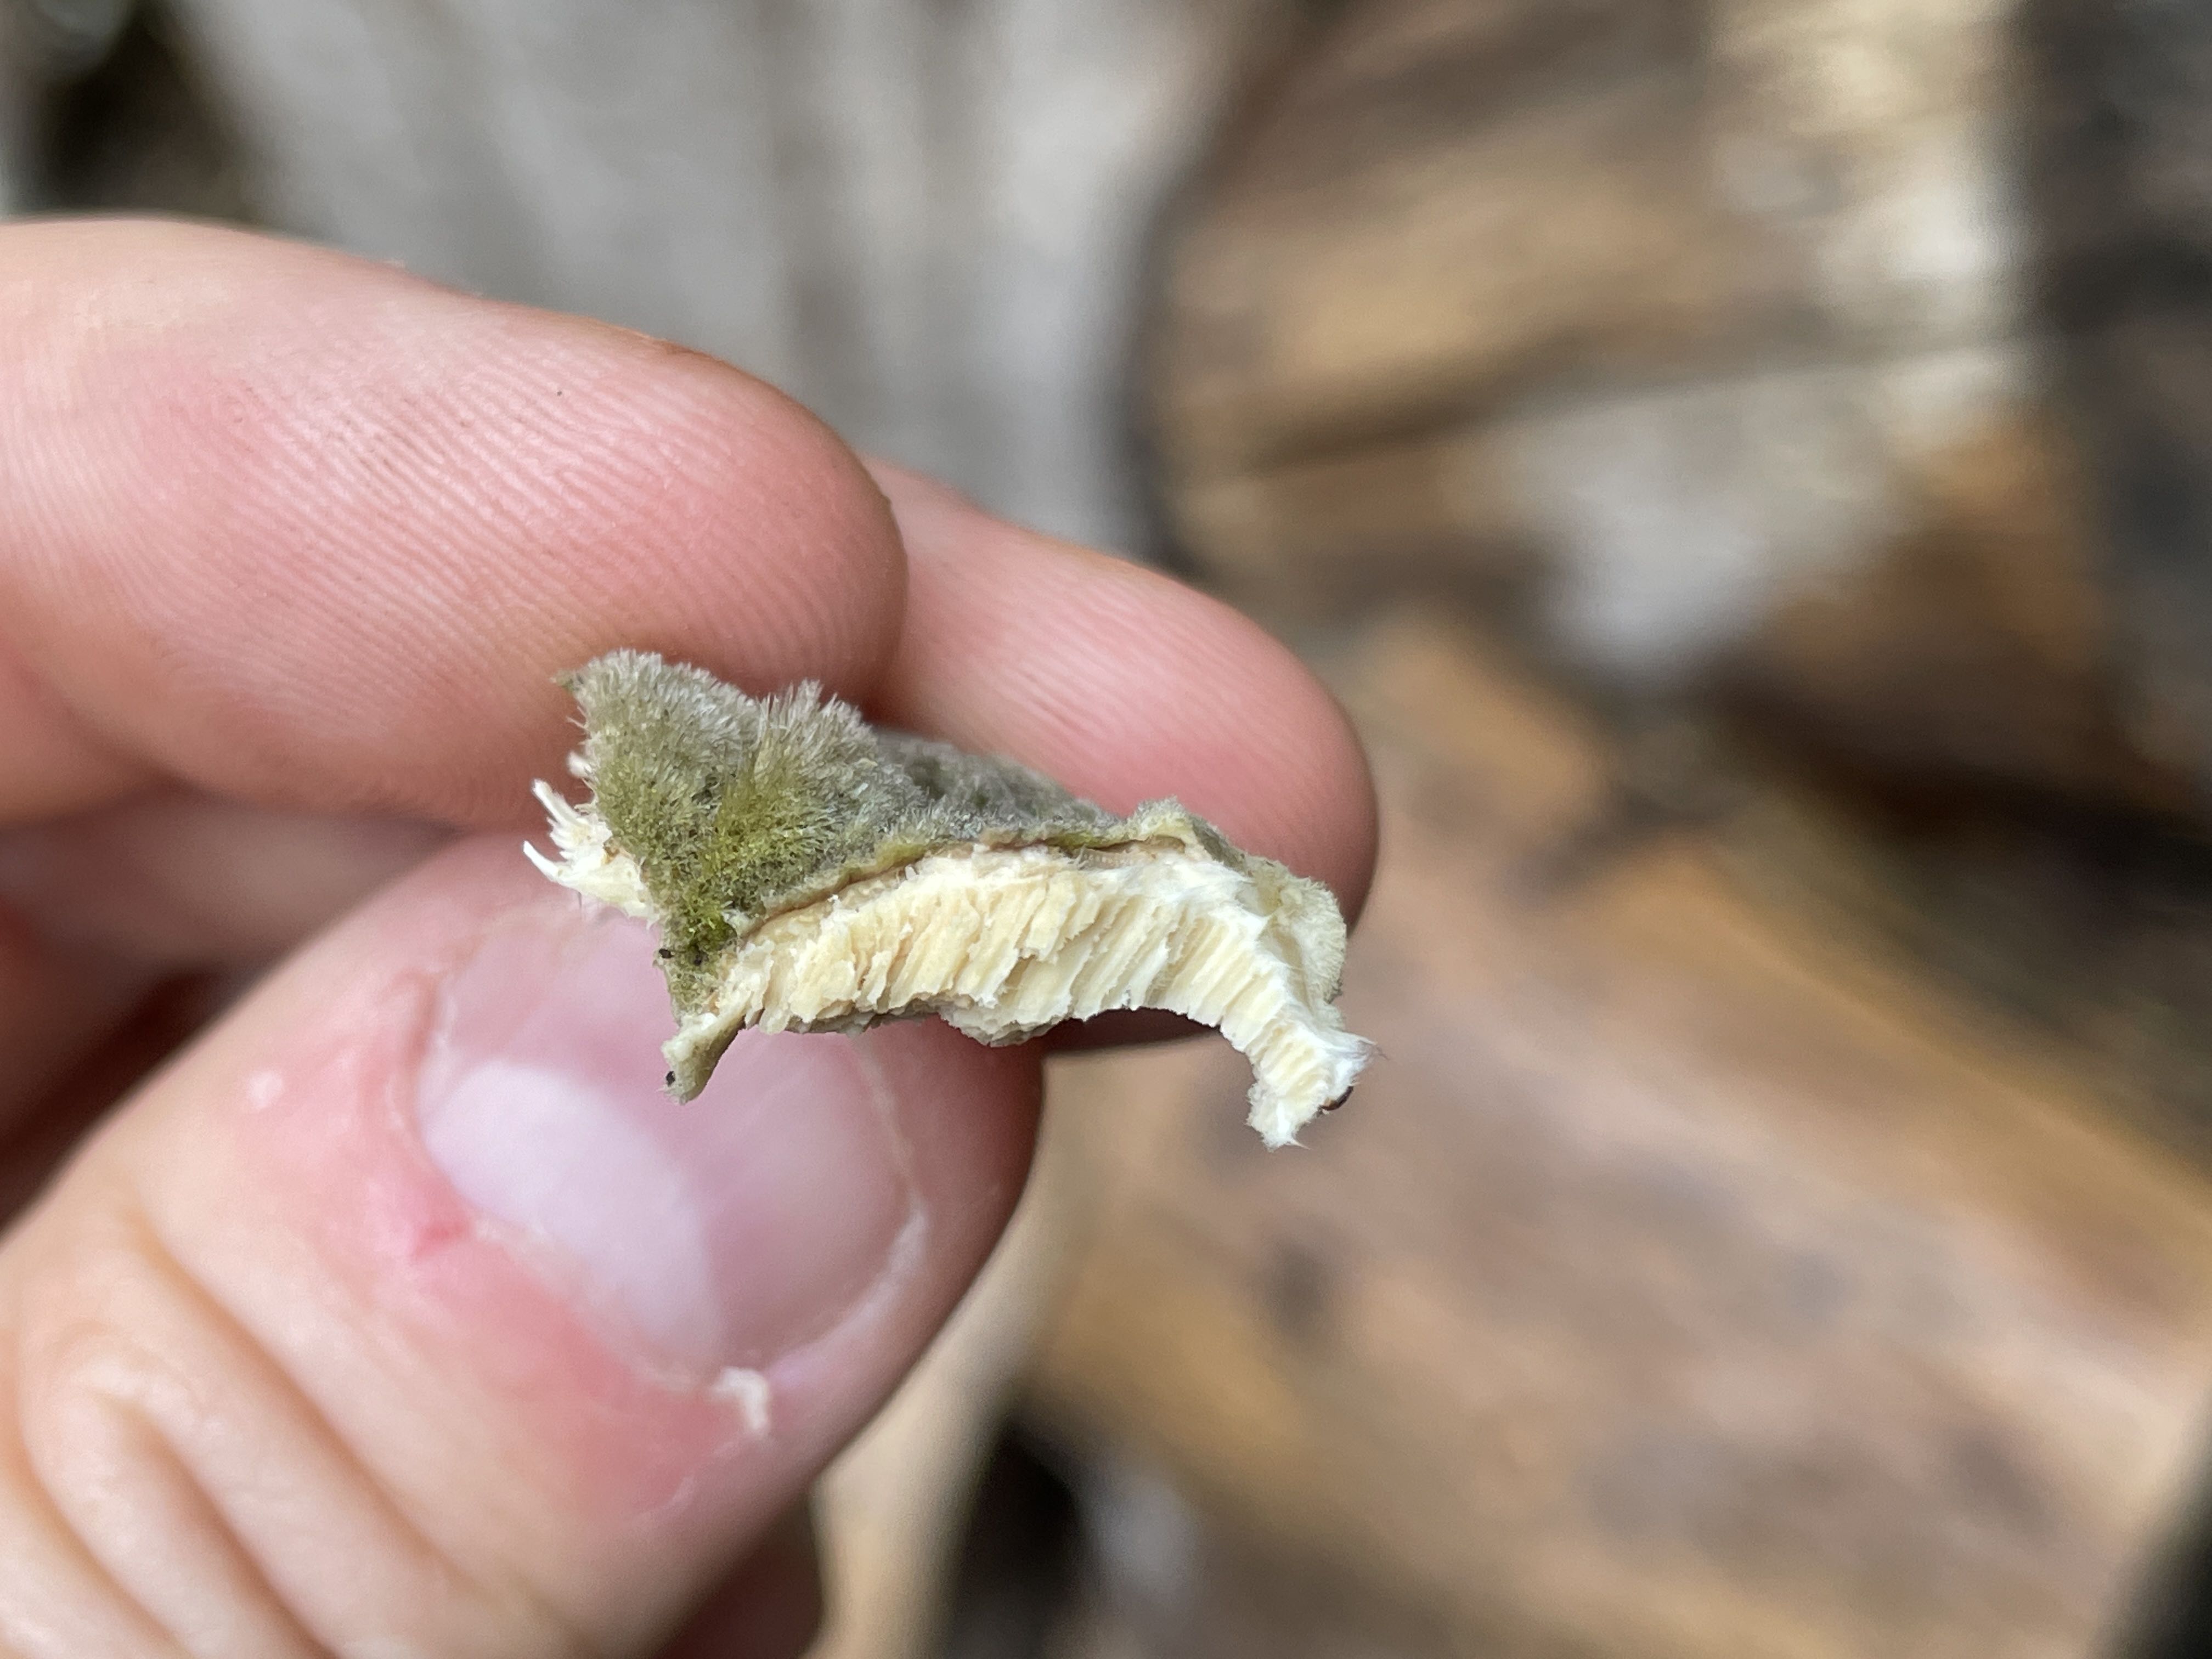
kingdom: Fungi
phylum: Basidiomycota
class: Agaricomycetes
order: Polyporales
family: Polyporaceae
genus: Trametes
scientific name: Trametes hirsuta
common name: håret læderporesvamp
